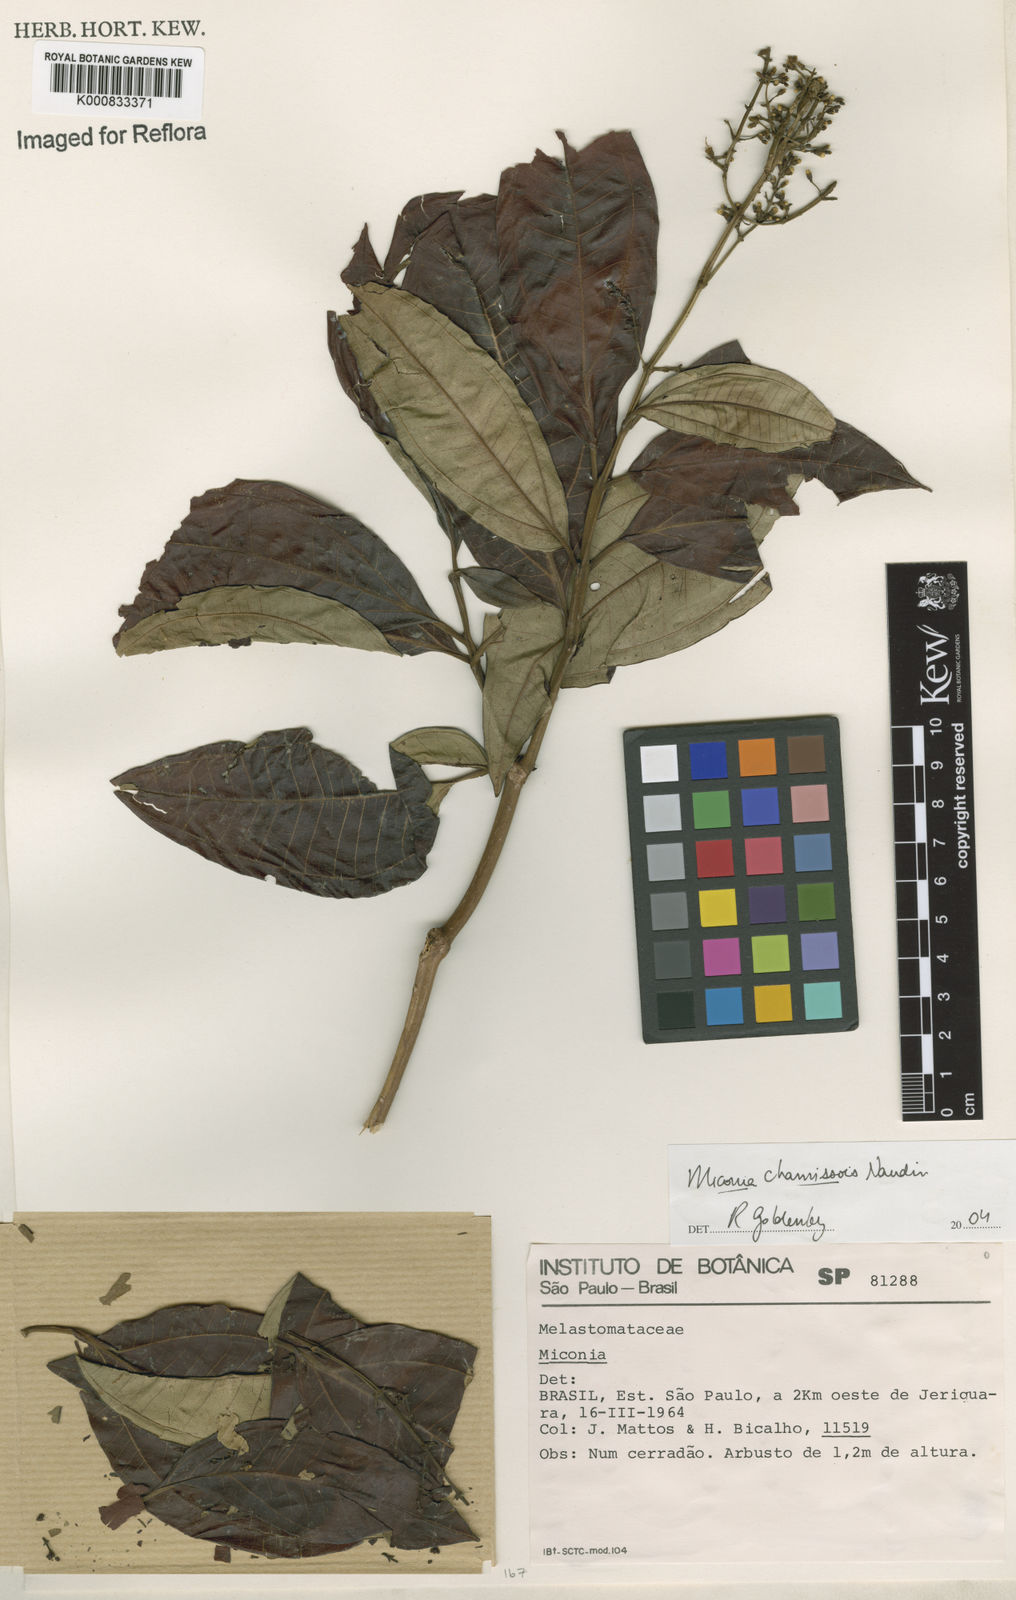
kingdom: Plantae
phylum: Tracheophyta
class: Magnoliopsida
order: Myrtales
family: Melastomataceae
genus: Miconia
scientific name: Miconia chamissois
